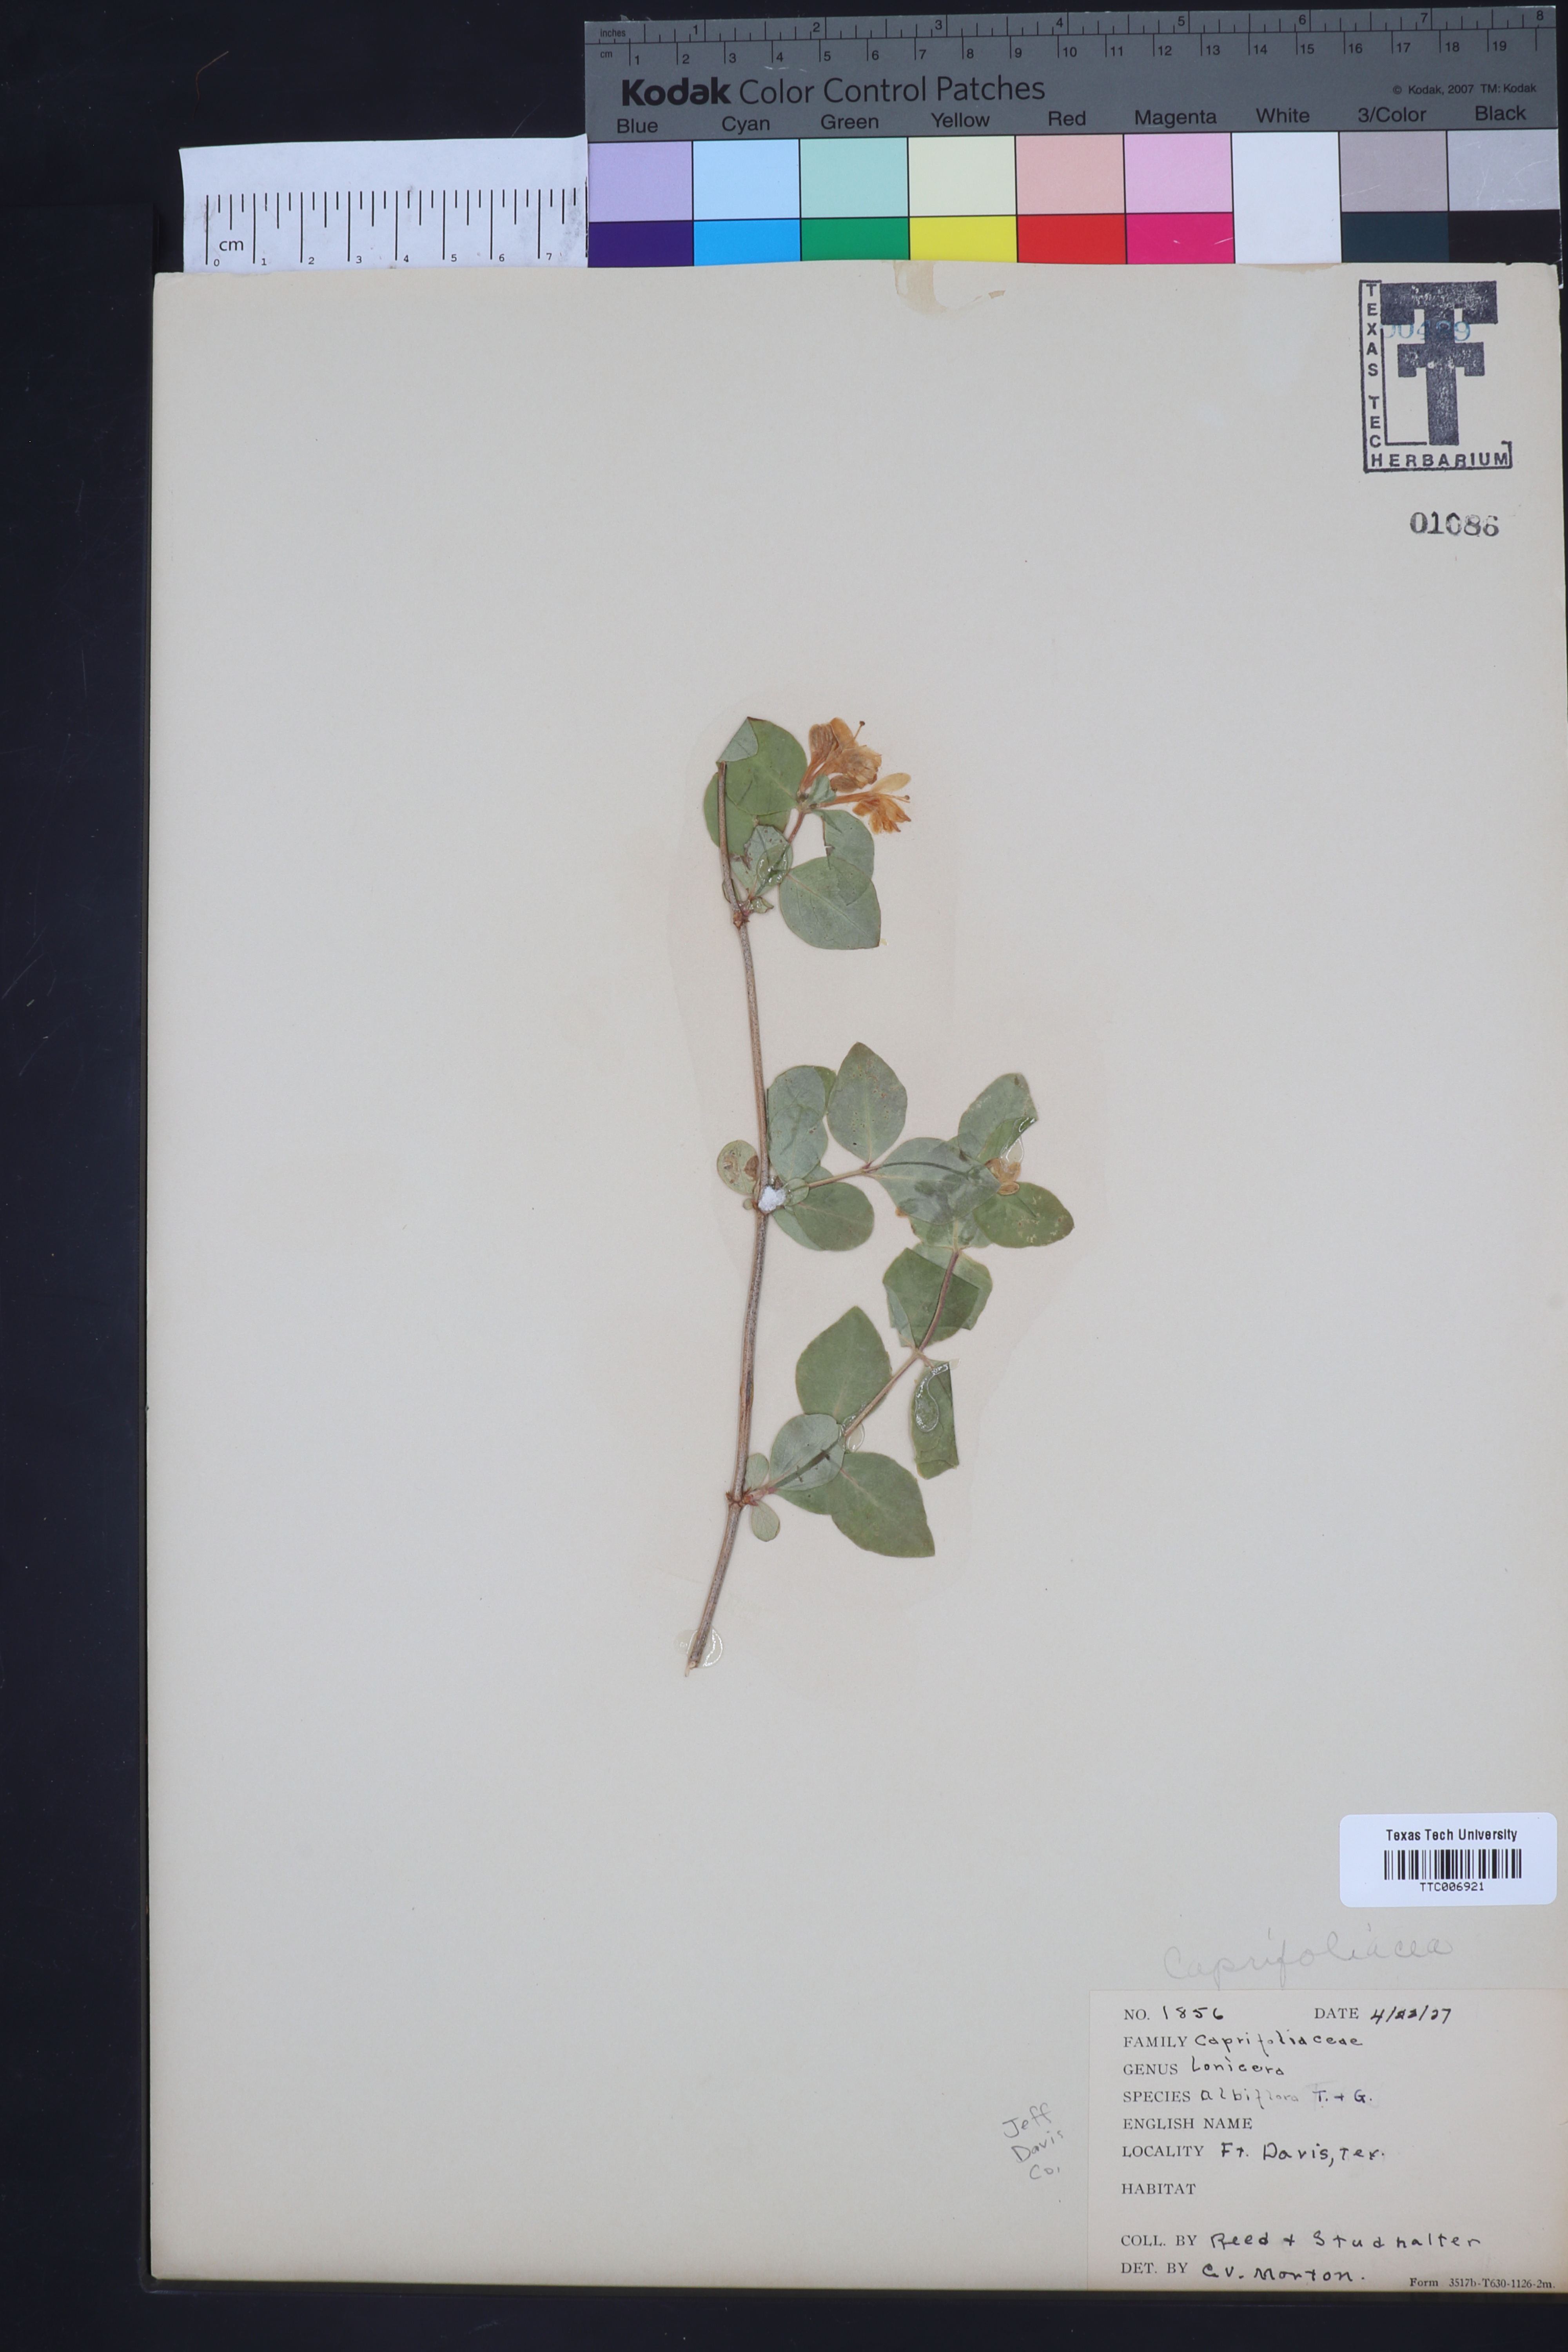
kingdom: Plantae
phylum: Tracheophyta
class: Magnoliopsida
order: Dipsacales
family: Caprifoliaceae
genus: Lonicera
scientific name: Lonicera albiflora
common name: White honeysuckle
